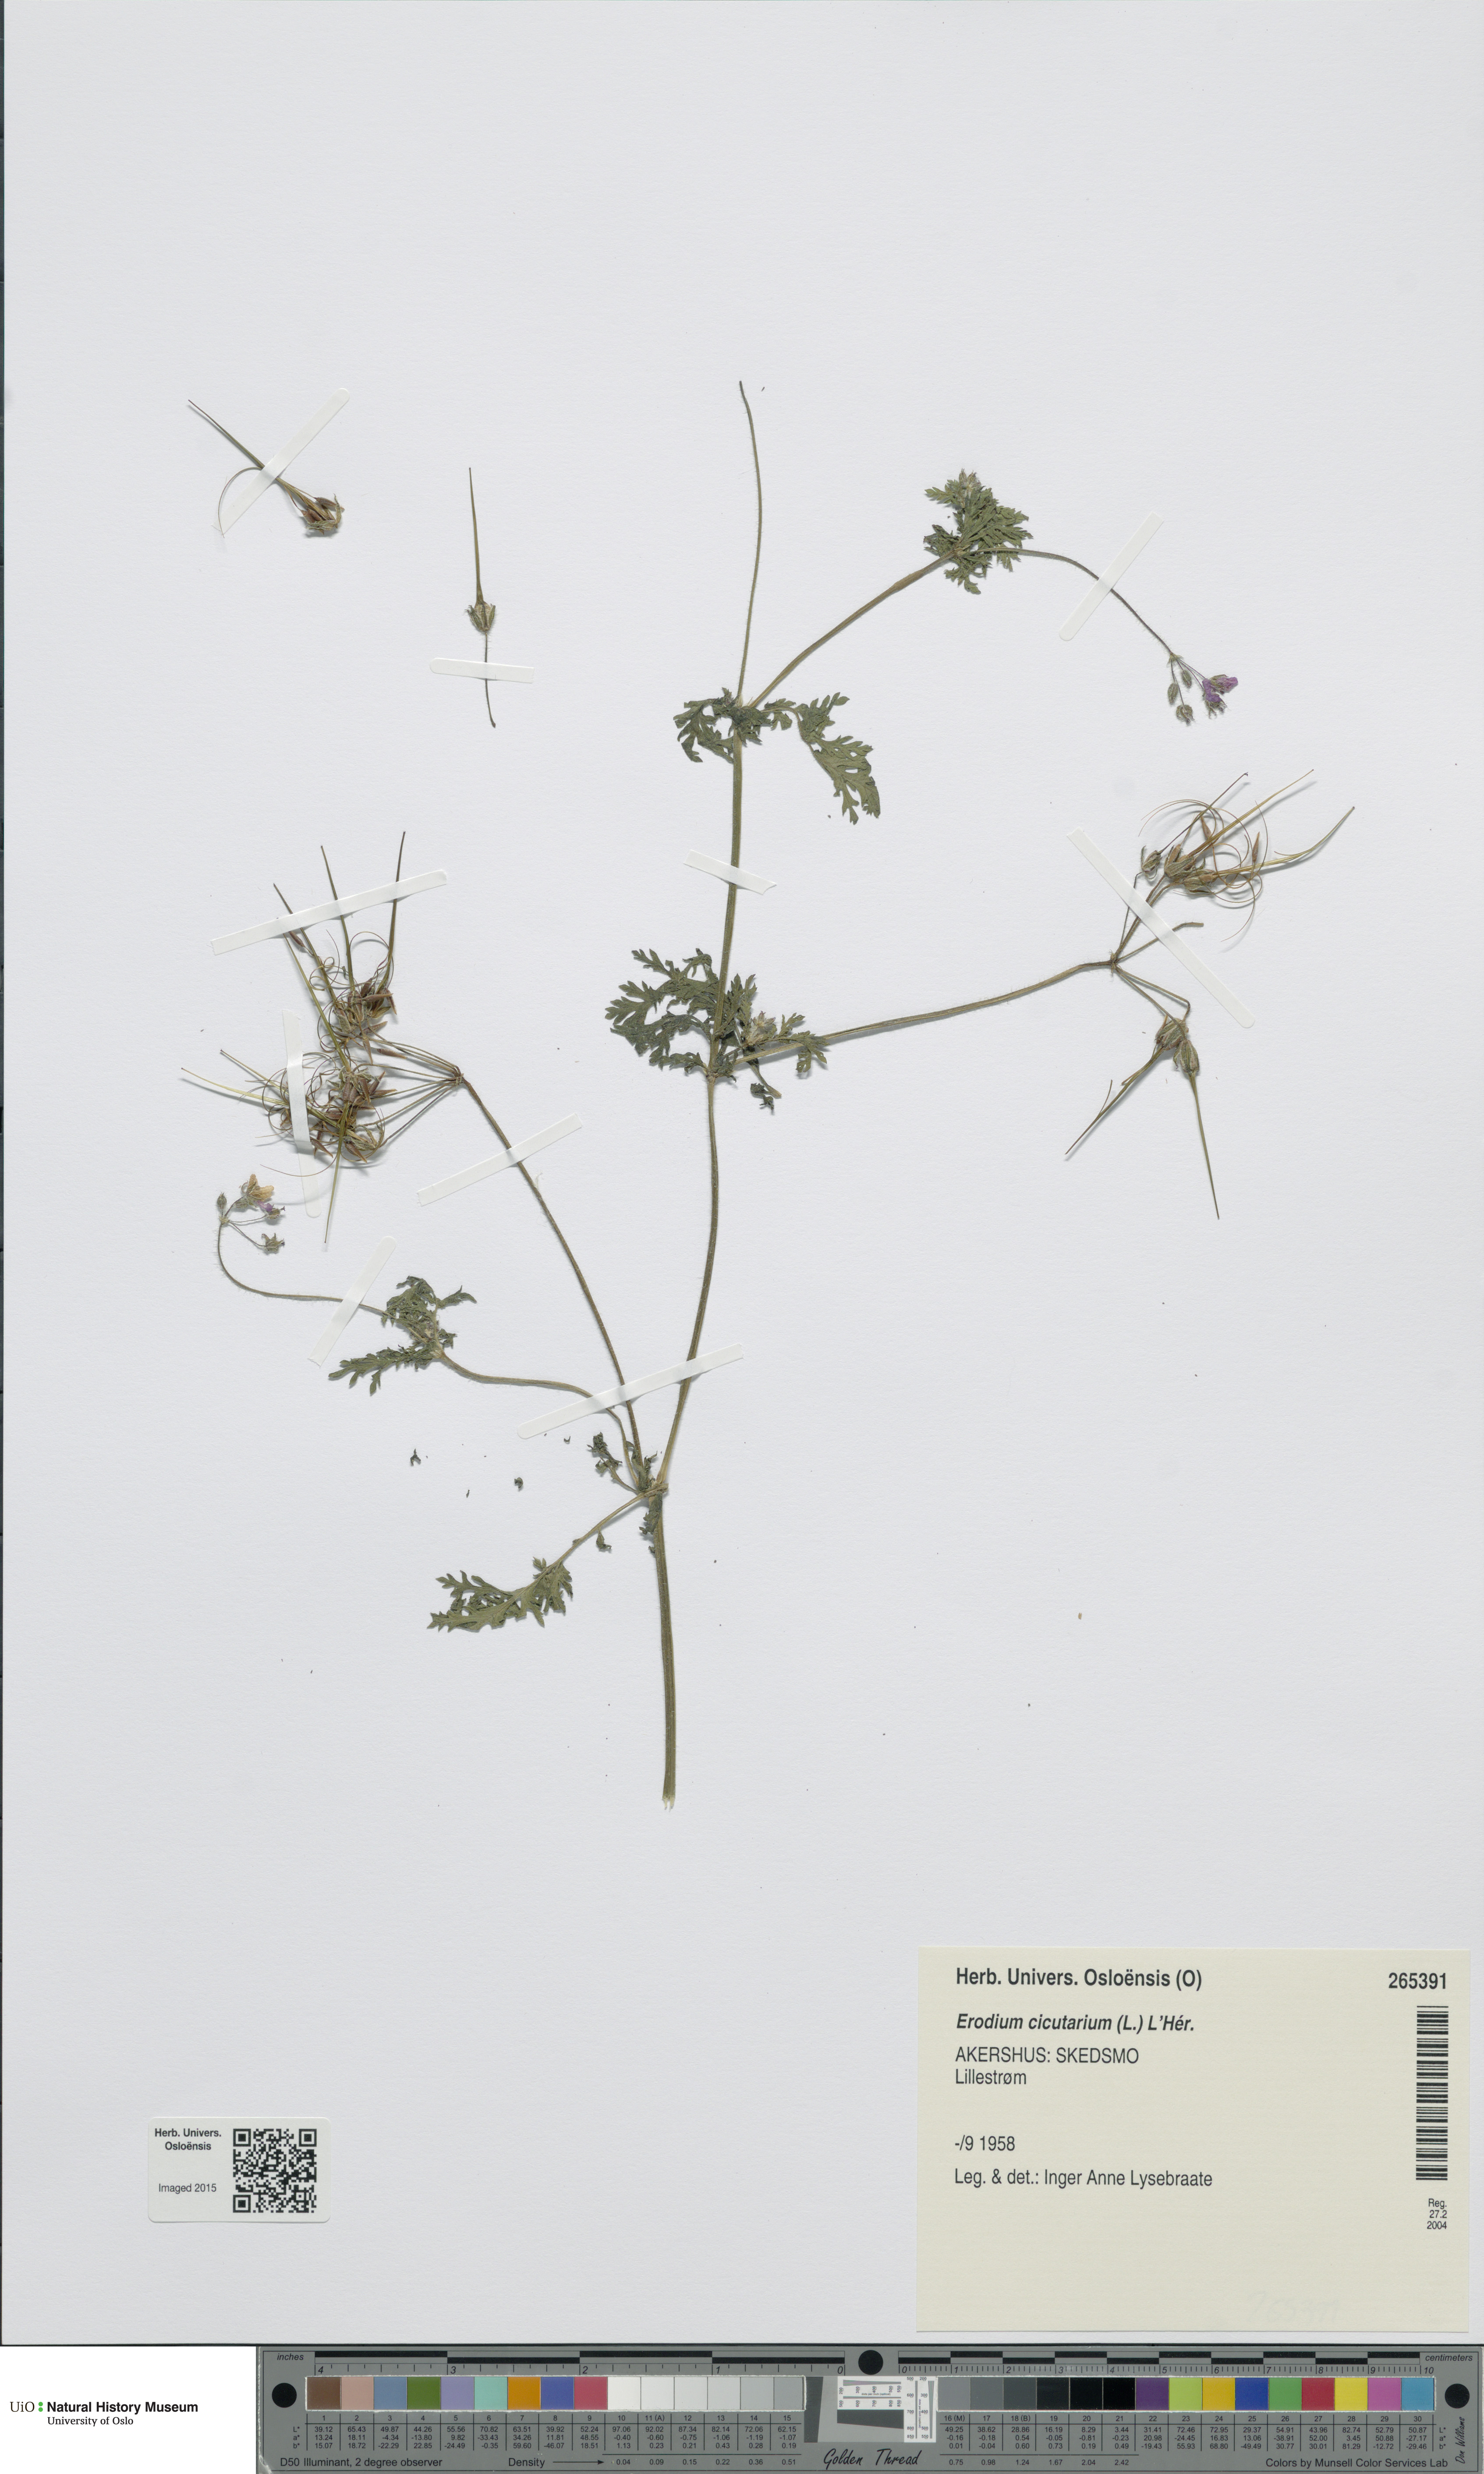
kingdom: Plantae
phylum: Tracheophyta
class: Magnoliopsida
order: Geraniales
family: Geraniaceae
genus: Erodium
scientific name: Erodium cicutarium
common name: Common stork's-bill
